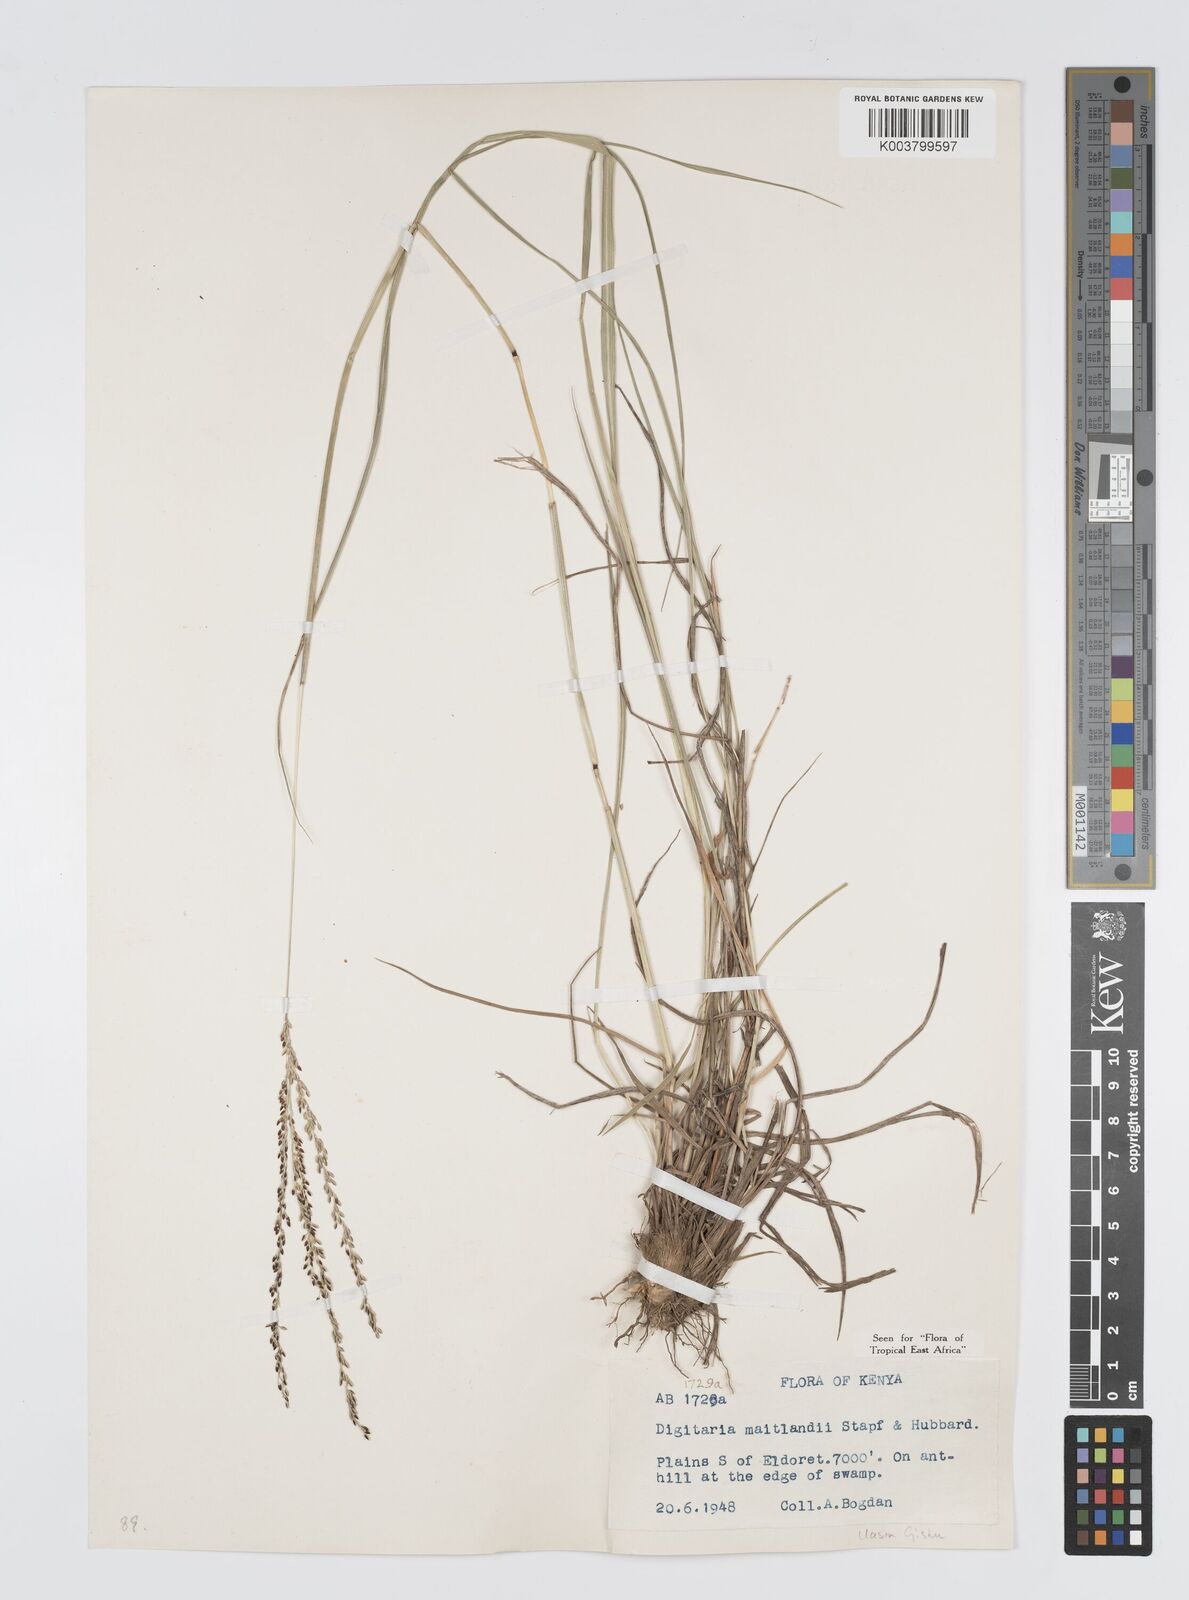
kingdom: Plantae
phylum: Tracheophyta
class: Liliopsida
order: Poales
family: Poaceae
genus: Digitaria
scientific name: Digitaria maitlandii
